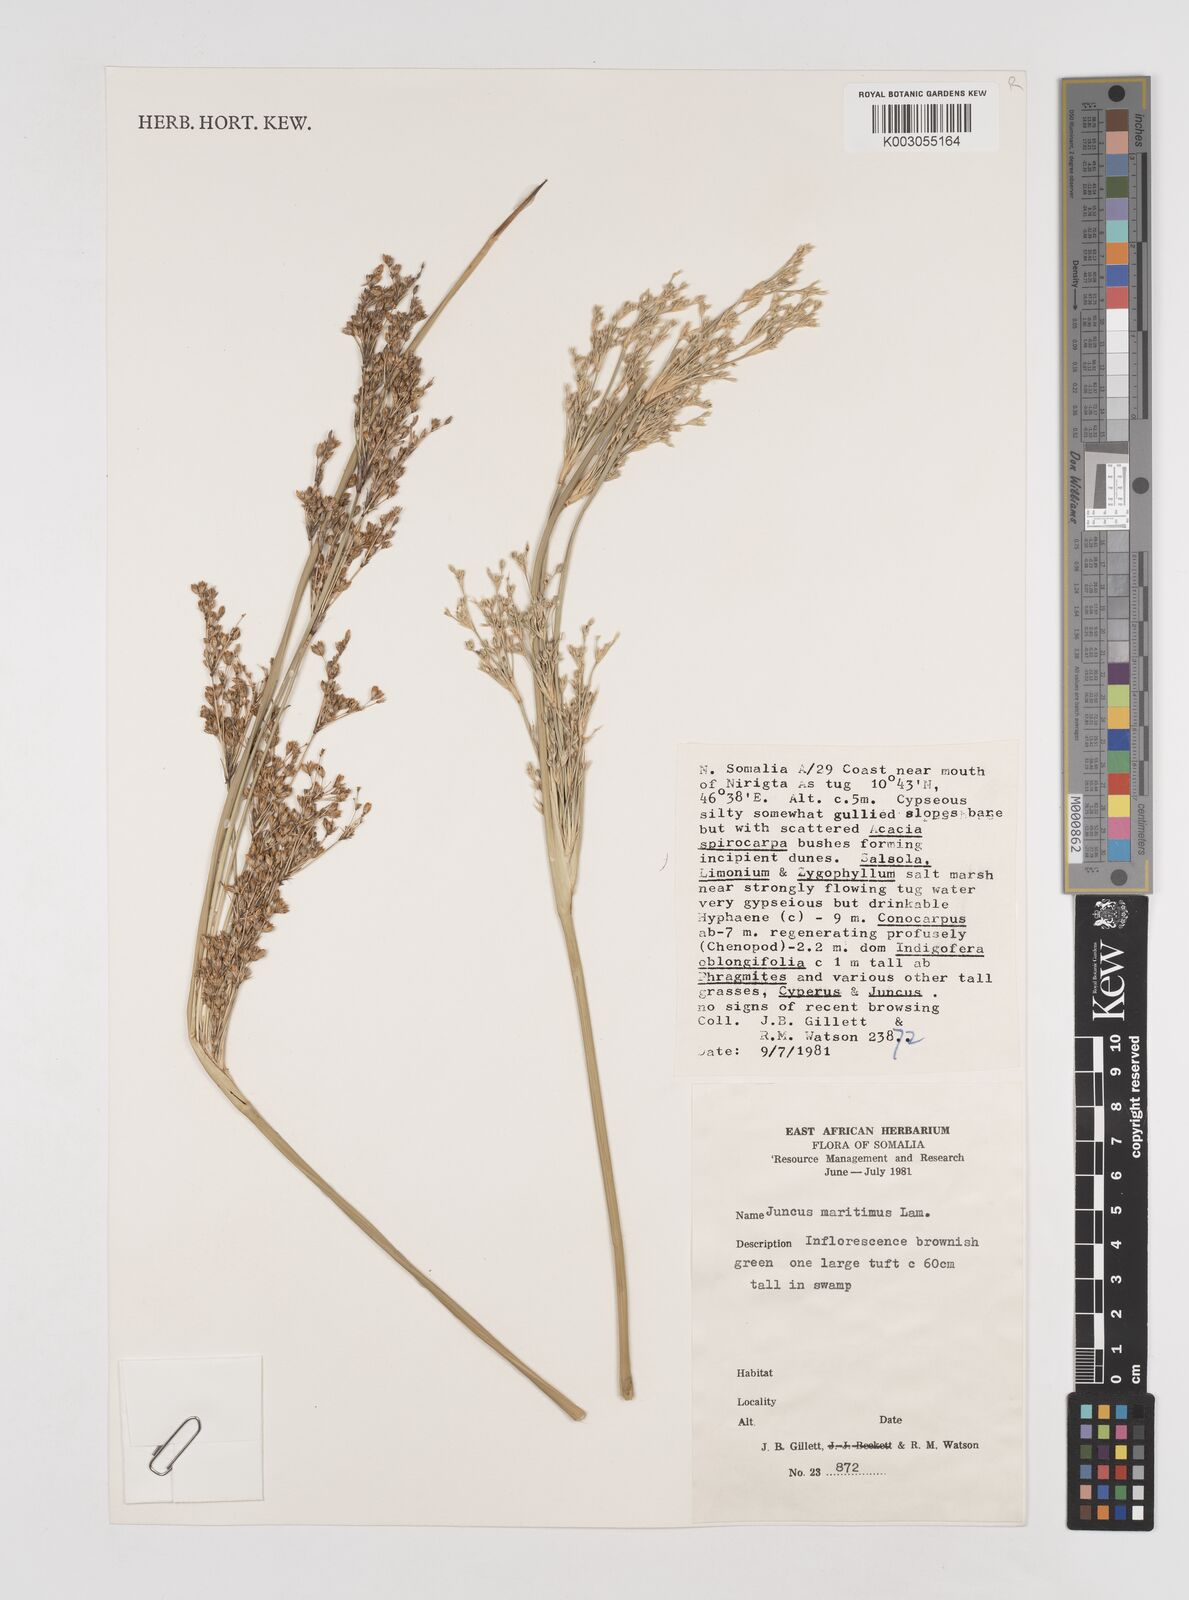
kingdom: Plantae
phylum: Tracheophyta
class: Liliopsida
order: Poales
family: Juncaceae
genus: Juncus
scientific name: Juncus kraussii
